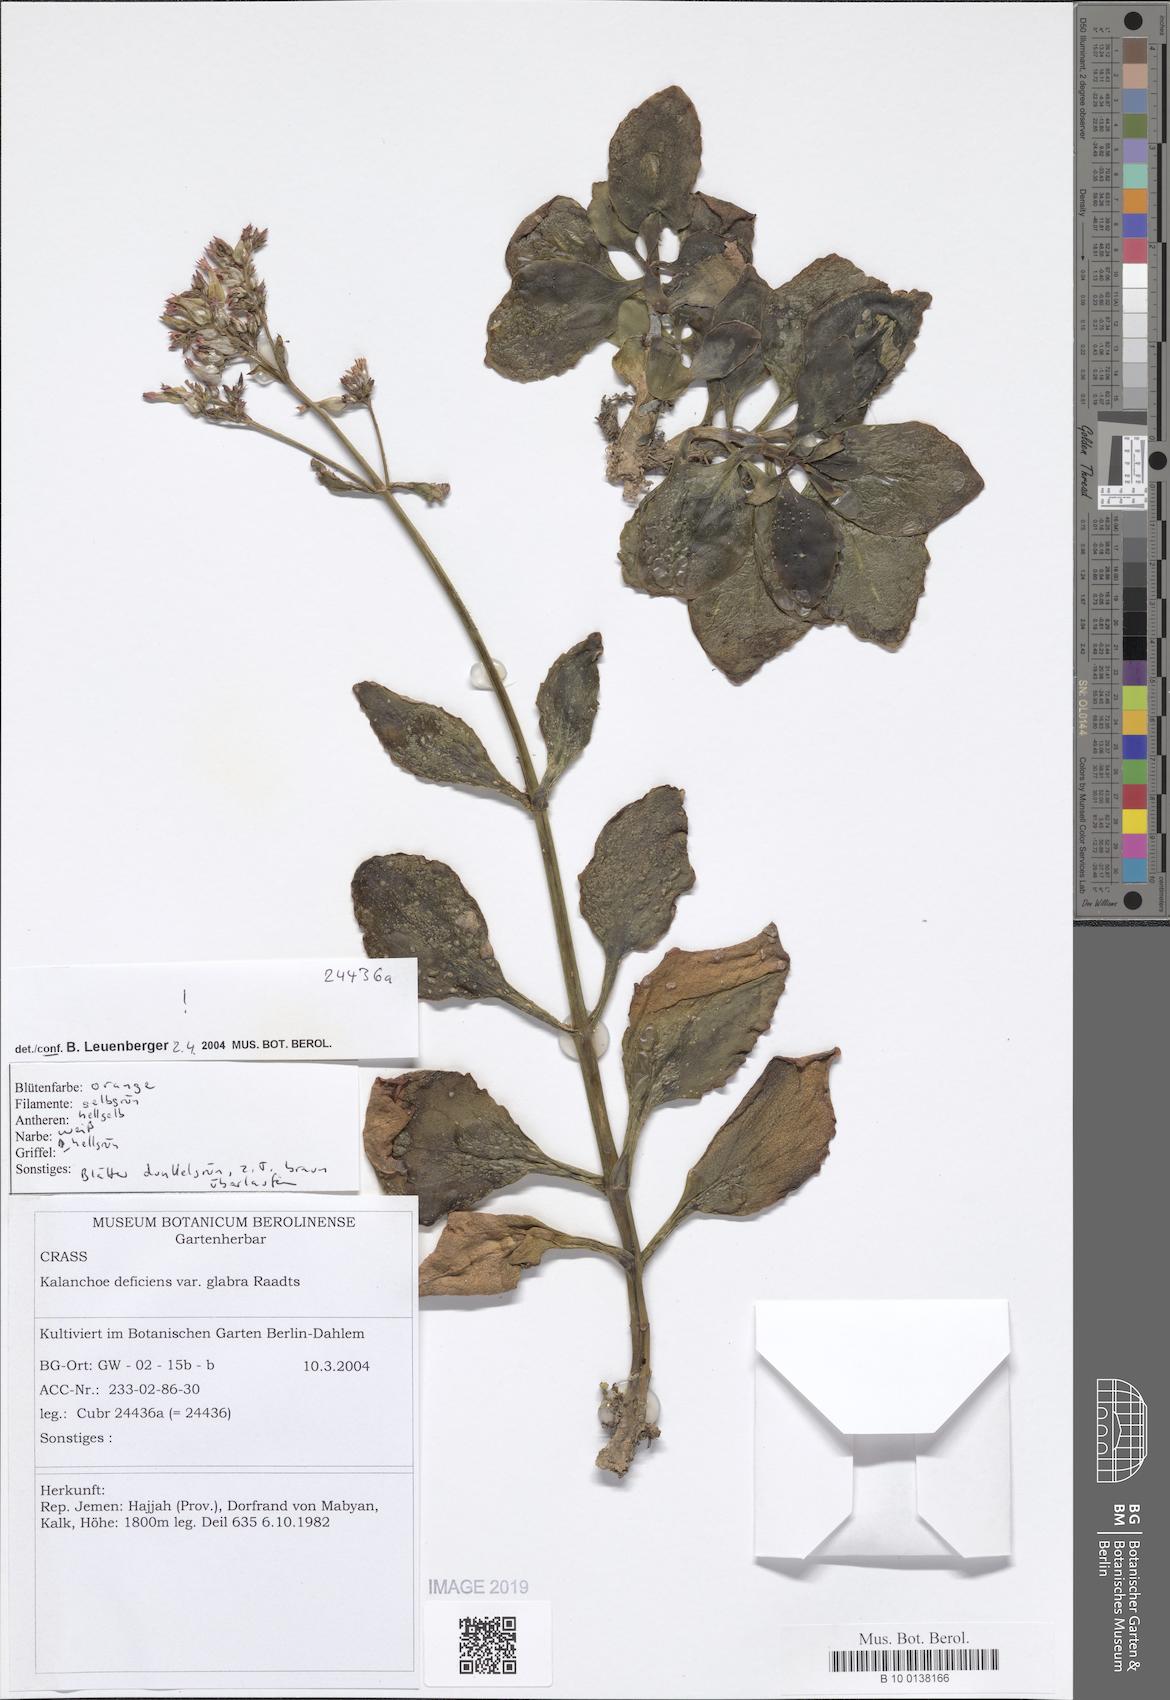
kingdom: Plantae
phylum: Tracheophyta
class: Magnoliopsida
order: Saxifragales
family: Crassulaceae
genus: Kalanchoe
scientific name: Kalanchoe deficiens
